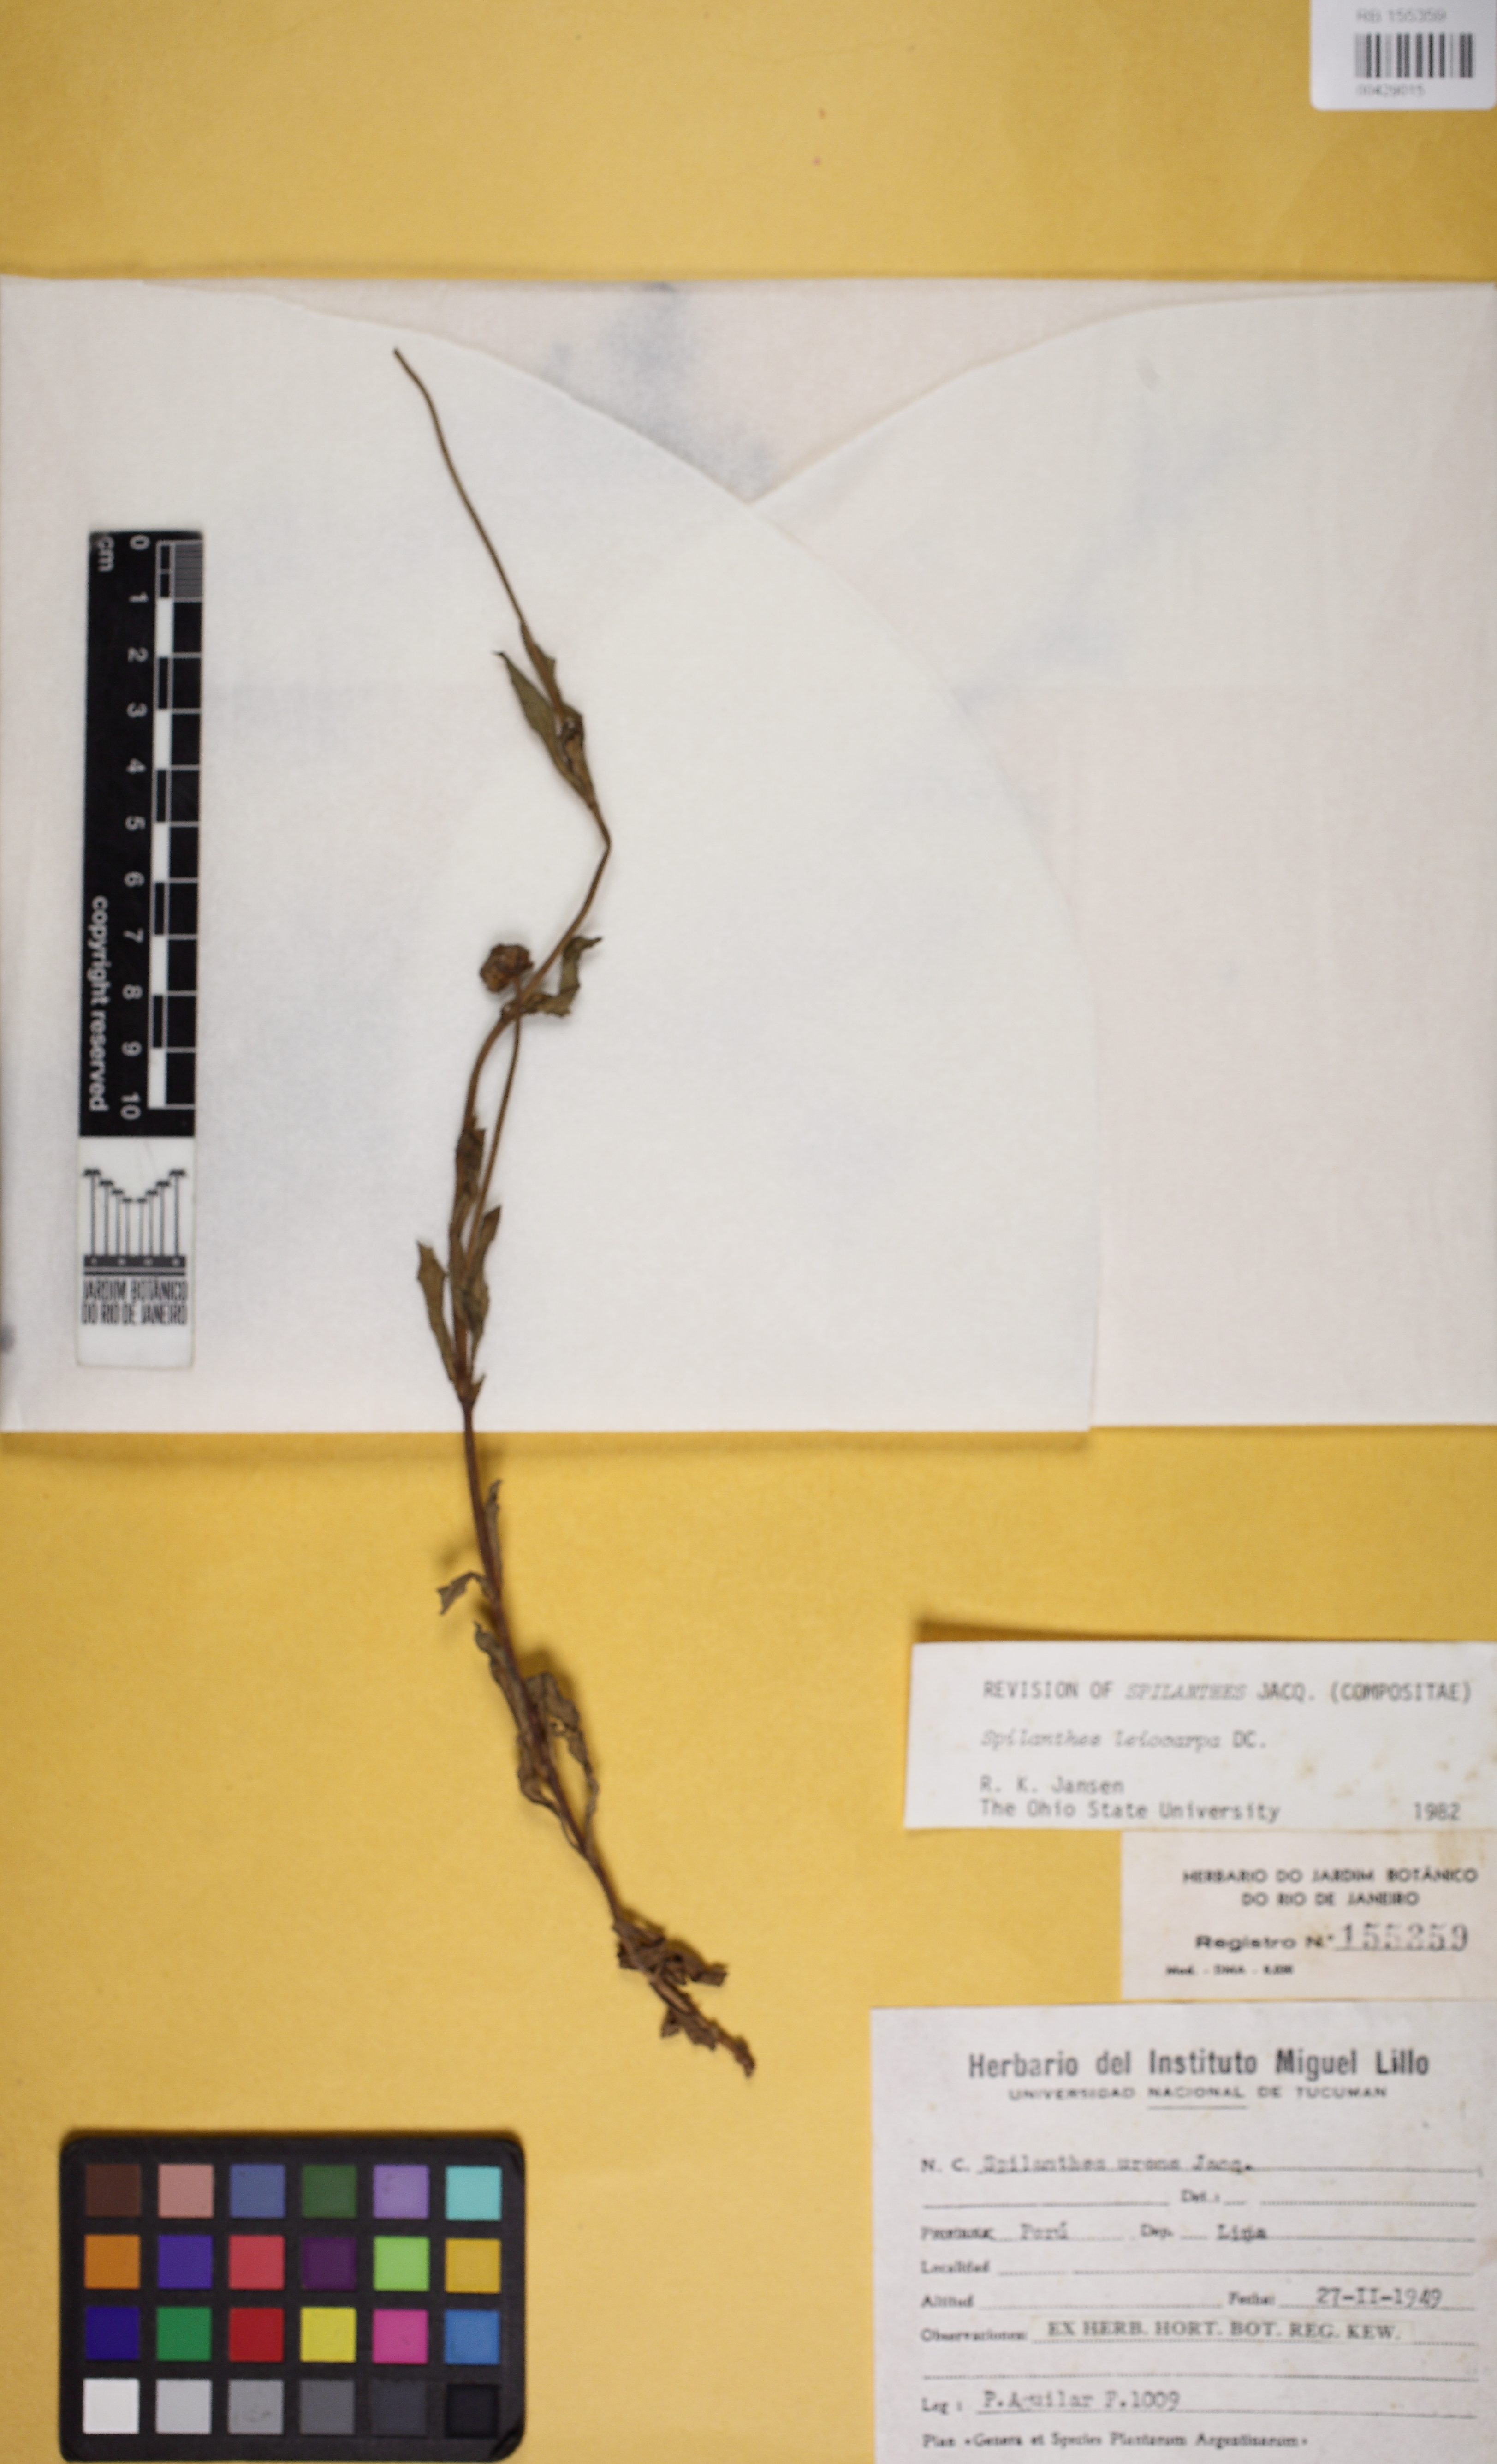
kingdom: Plantae
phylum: Tracheophyta
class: Magnoliopsida
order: Asterales
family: Asteraceae
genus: Spilanthes
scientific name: Spilanthes leiocarpa
